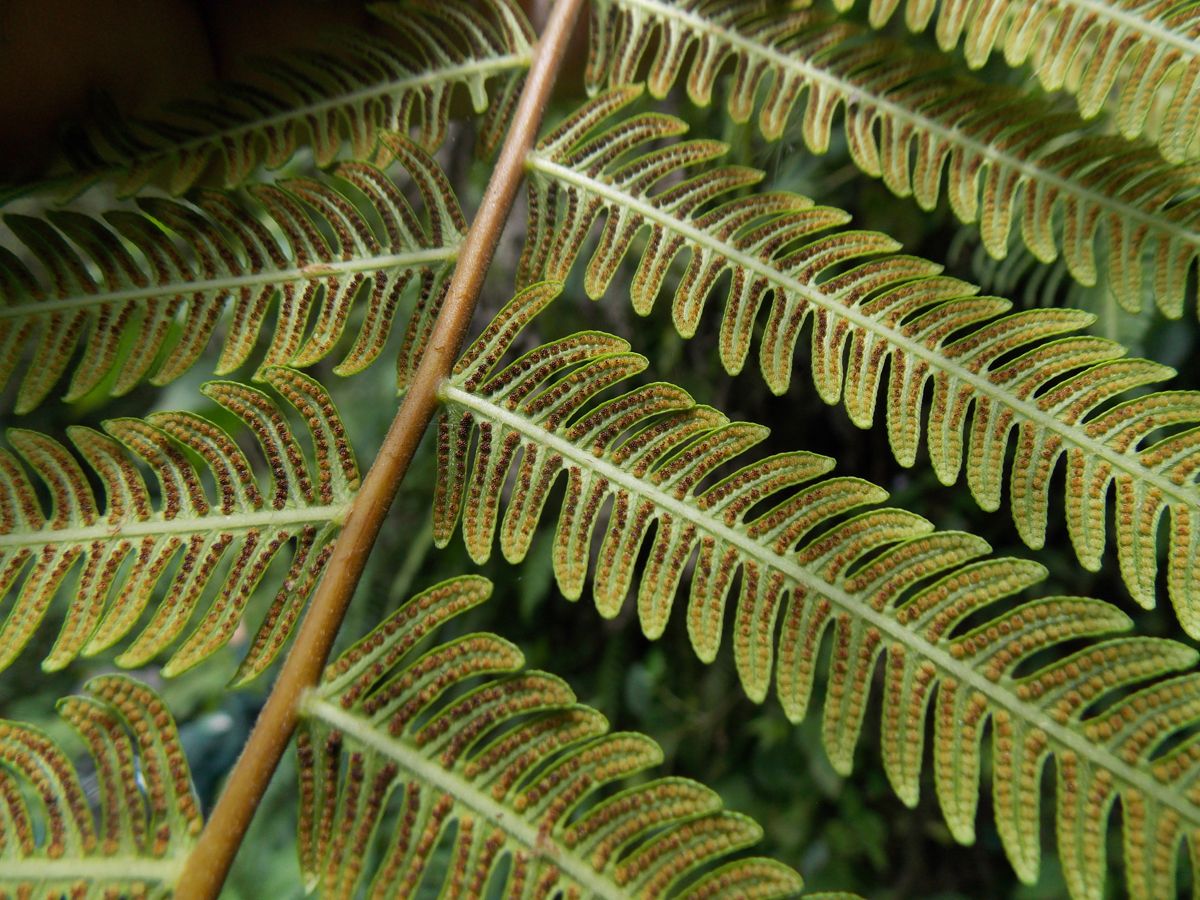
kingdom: Plantae
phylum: Tracheophyta
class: Polypodiopsida
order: Polypodiales
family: Thelypteridaceae
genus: Thelypteris
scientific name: Thelypteris
